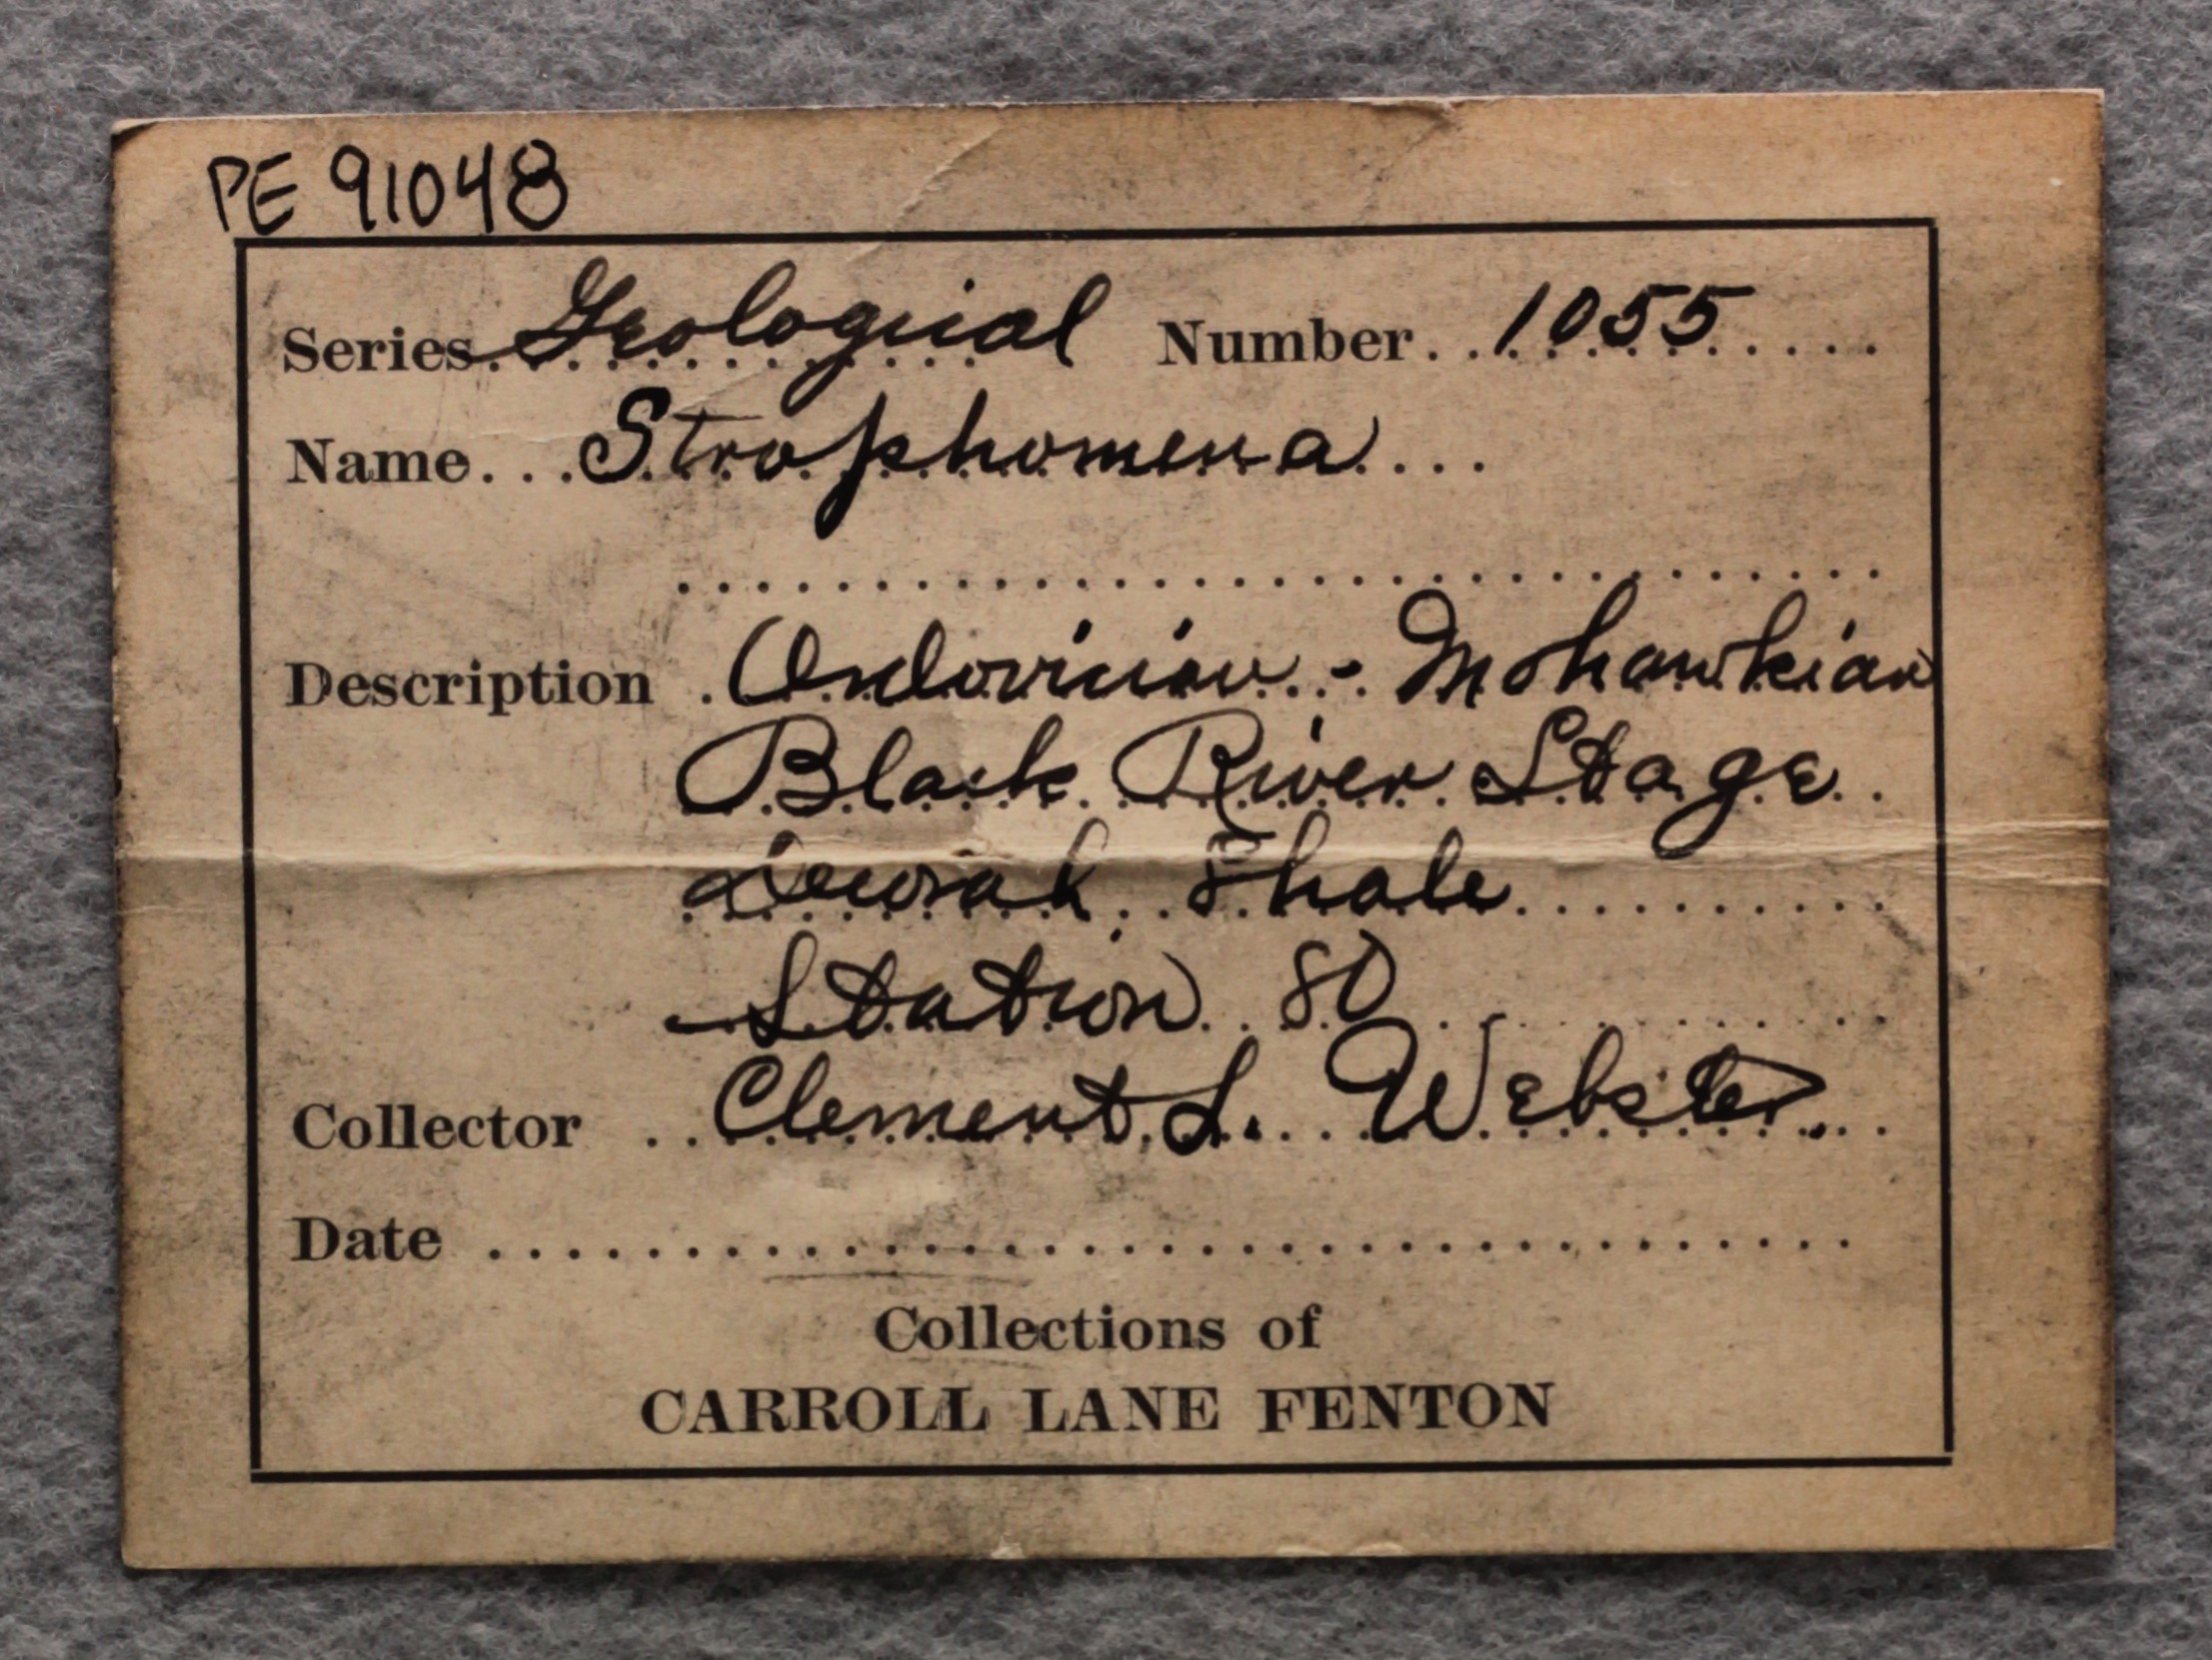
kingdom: Animalia
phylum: Brachiopoda
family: Strophomenidae
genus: Strophomena
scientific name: Strophomena
